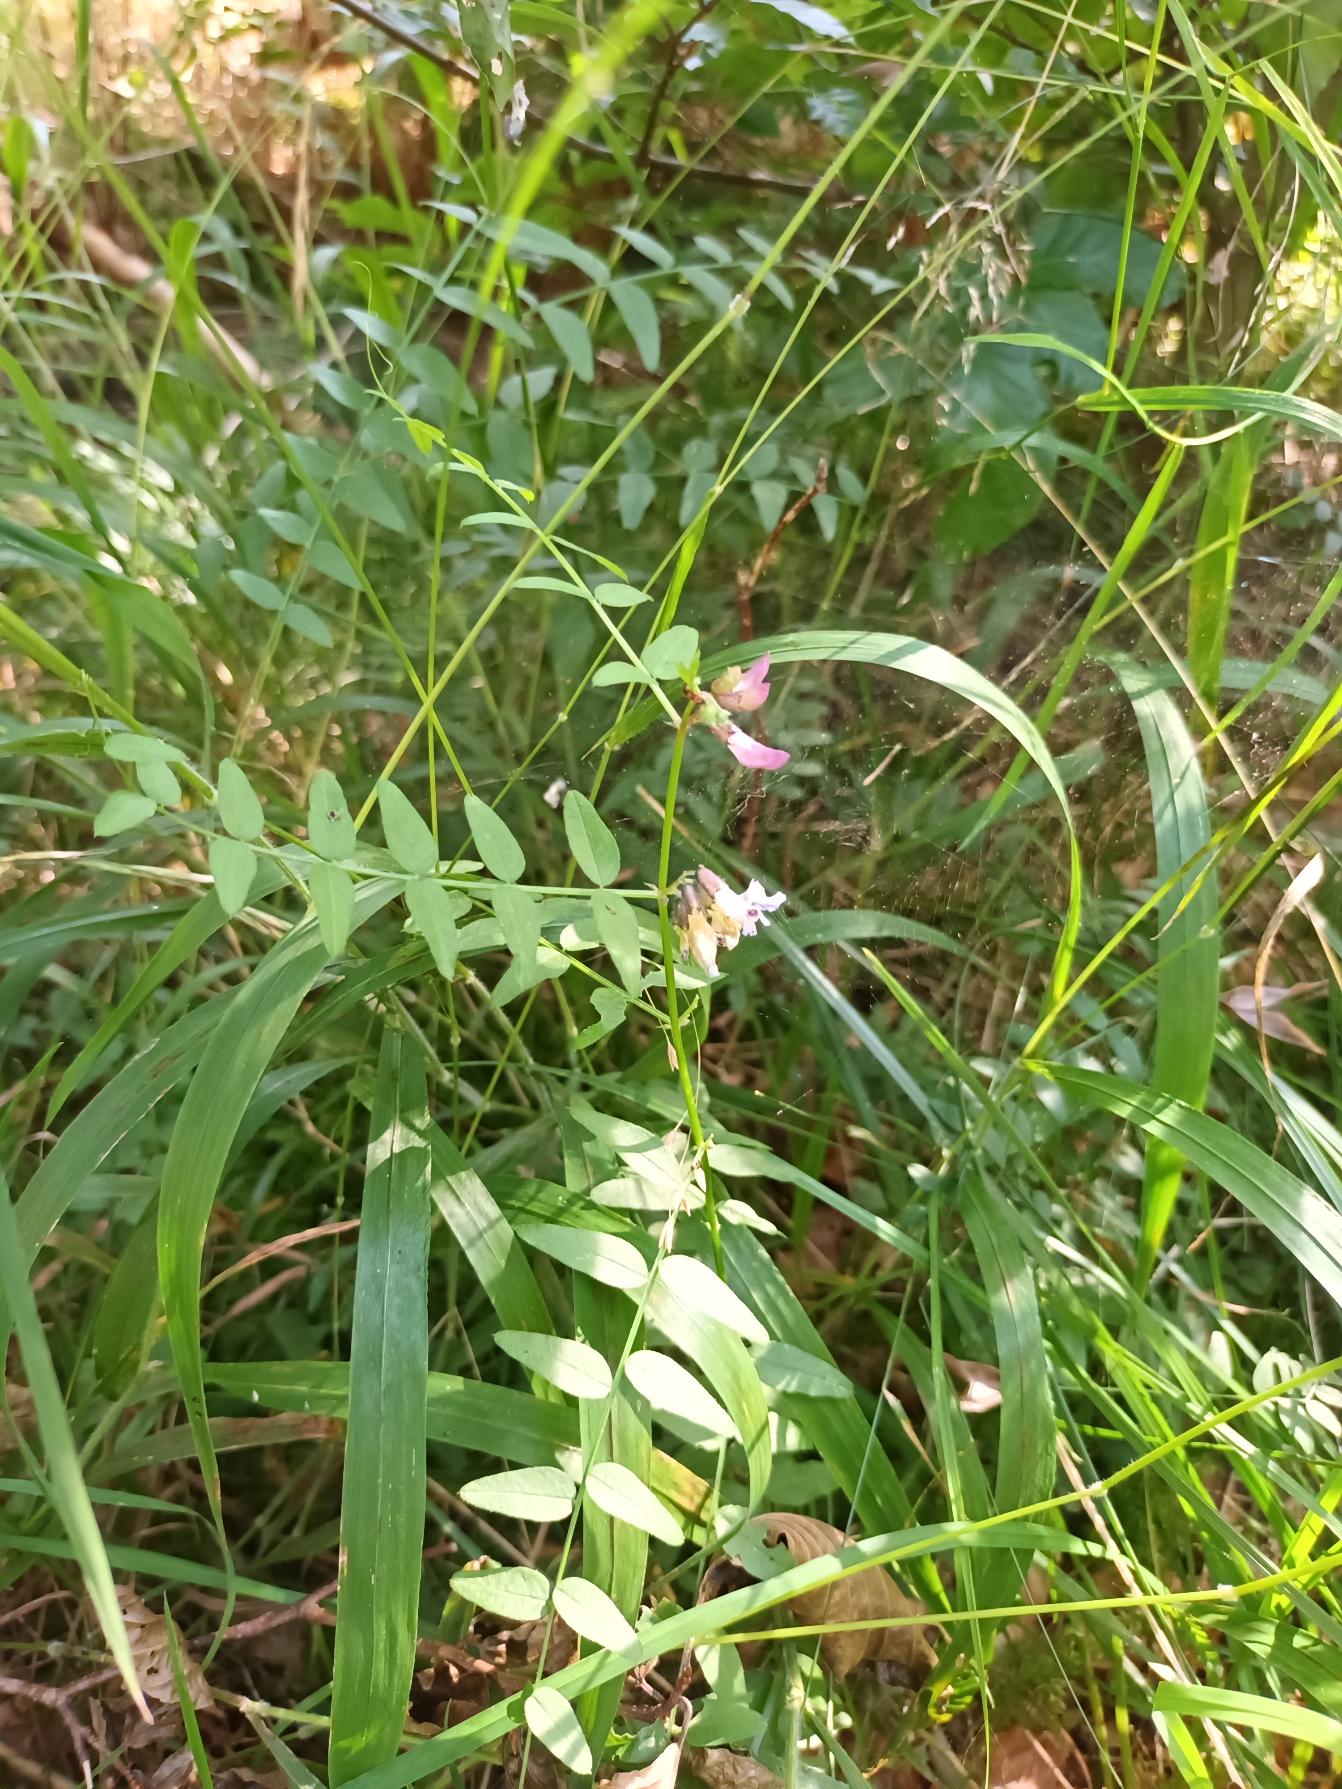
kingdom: Plantae
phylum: Tracheophyta
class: Magnoliopsida
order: Fabales
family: Fabaceae
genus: Vicia
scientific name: Vicia sepium
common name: Gærde-vikke
